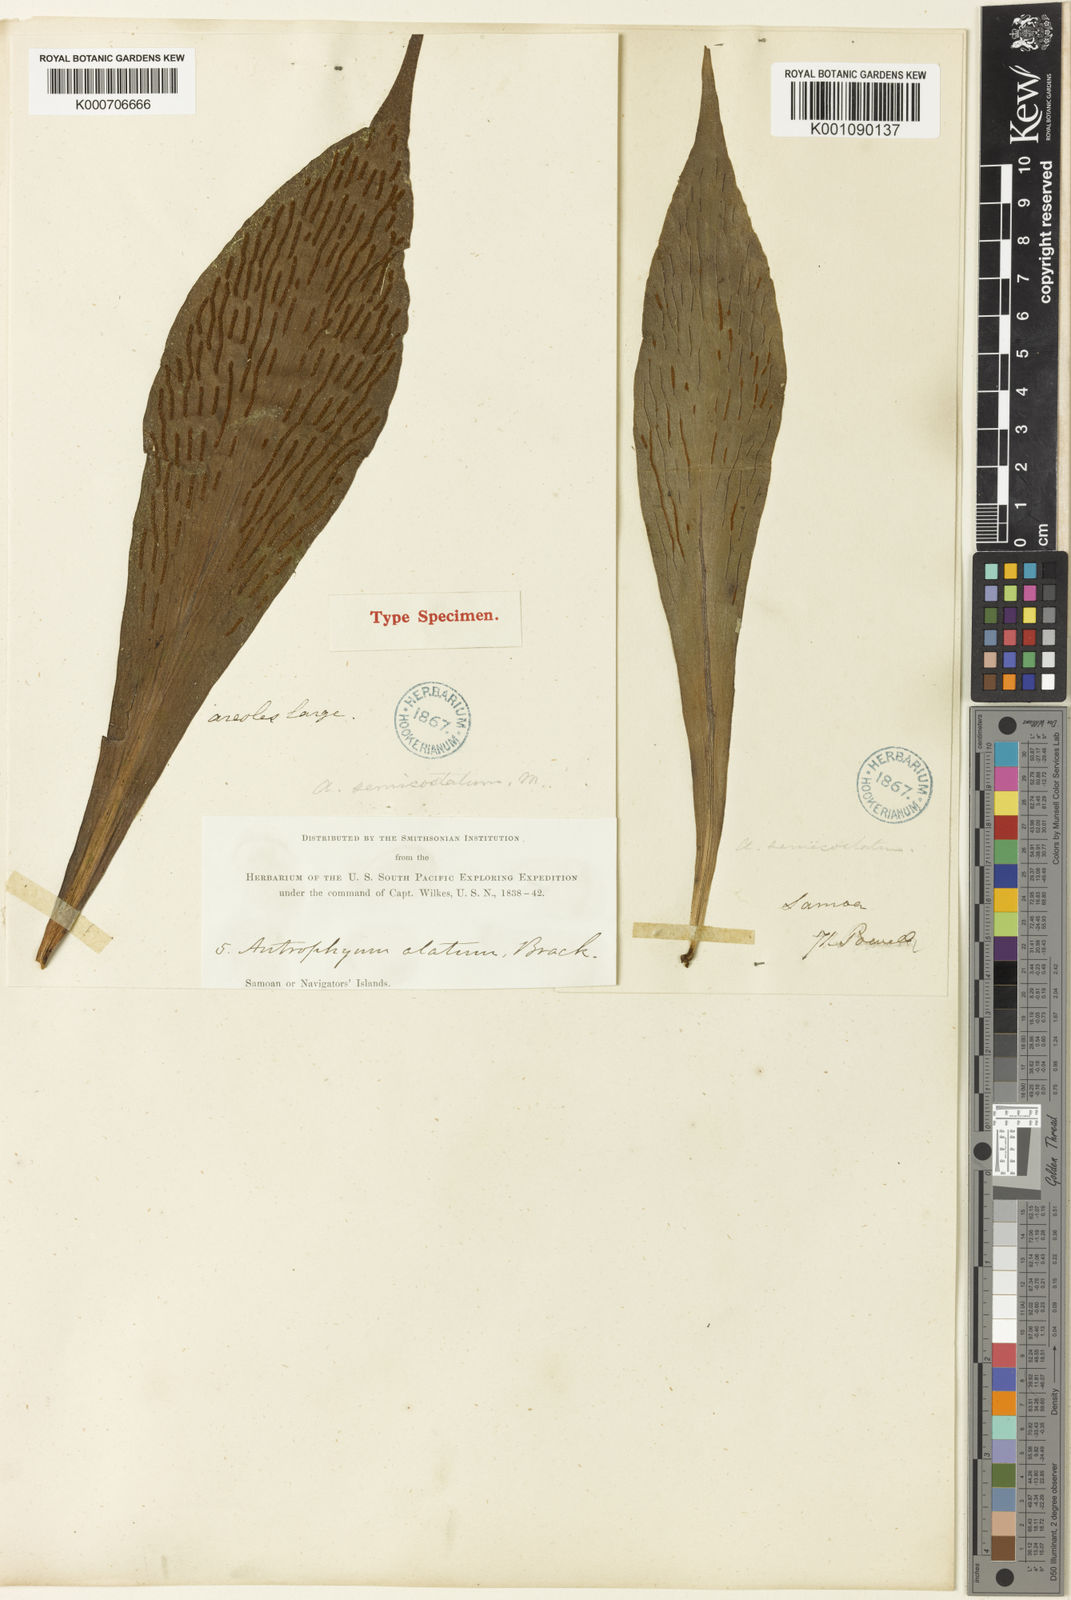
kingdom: Plantae
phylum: Tracheophyta
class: Polypodiopsida
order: Polypodiales
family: Pteridaceae
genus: Antrophyum
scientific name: Antrophyum callifolium
